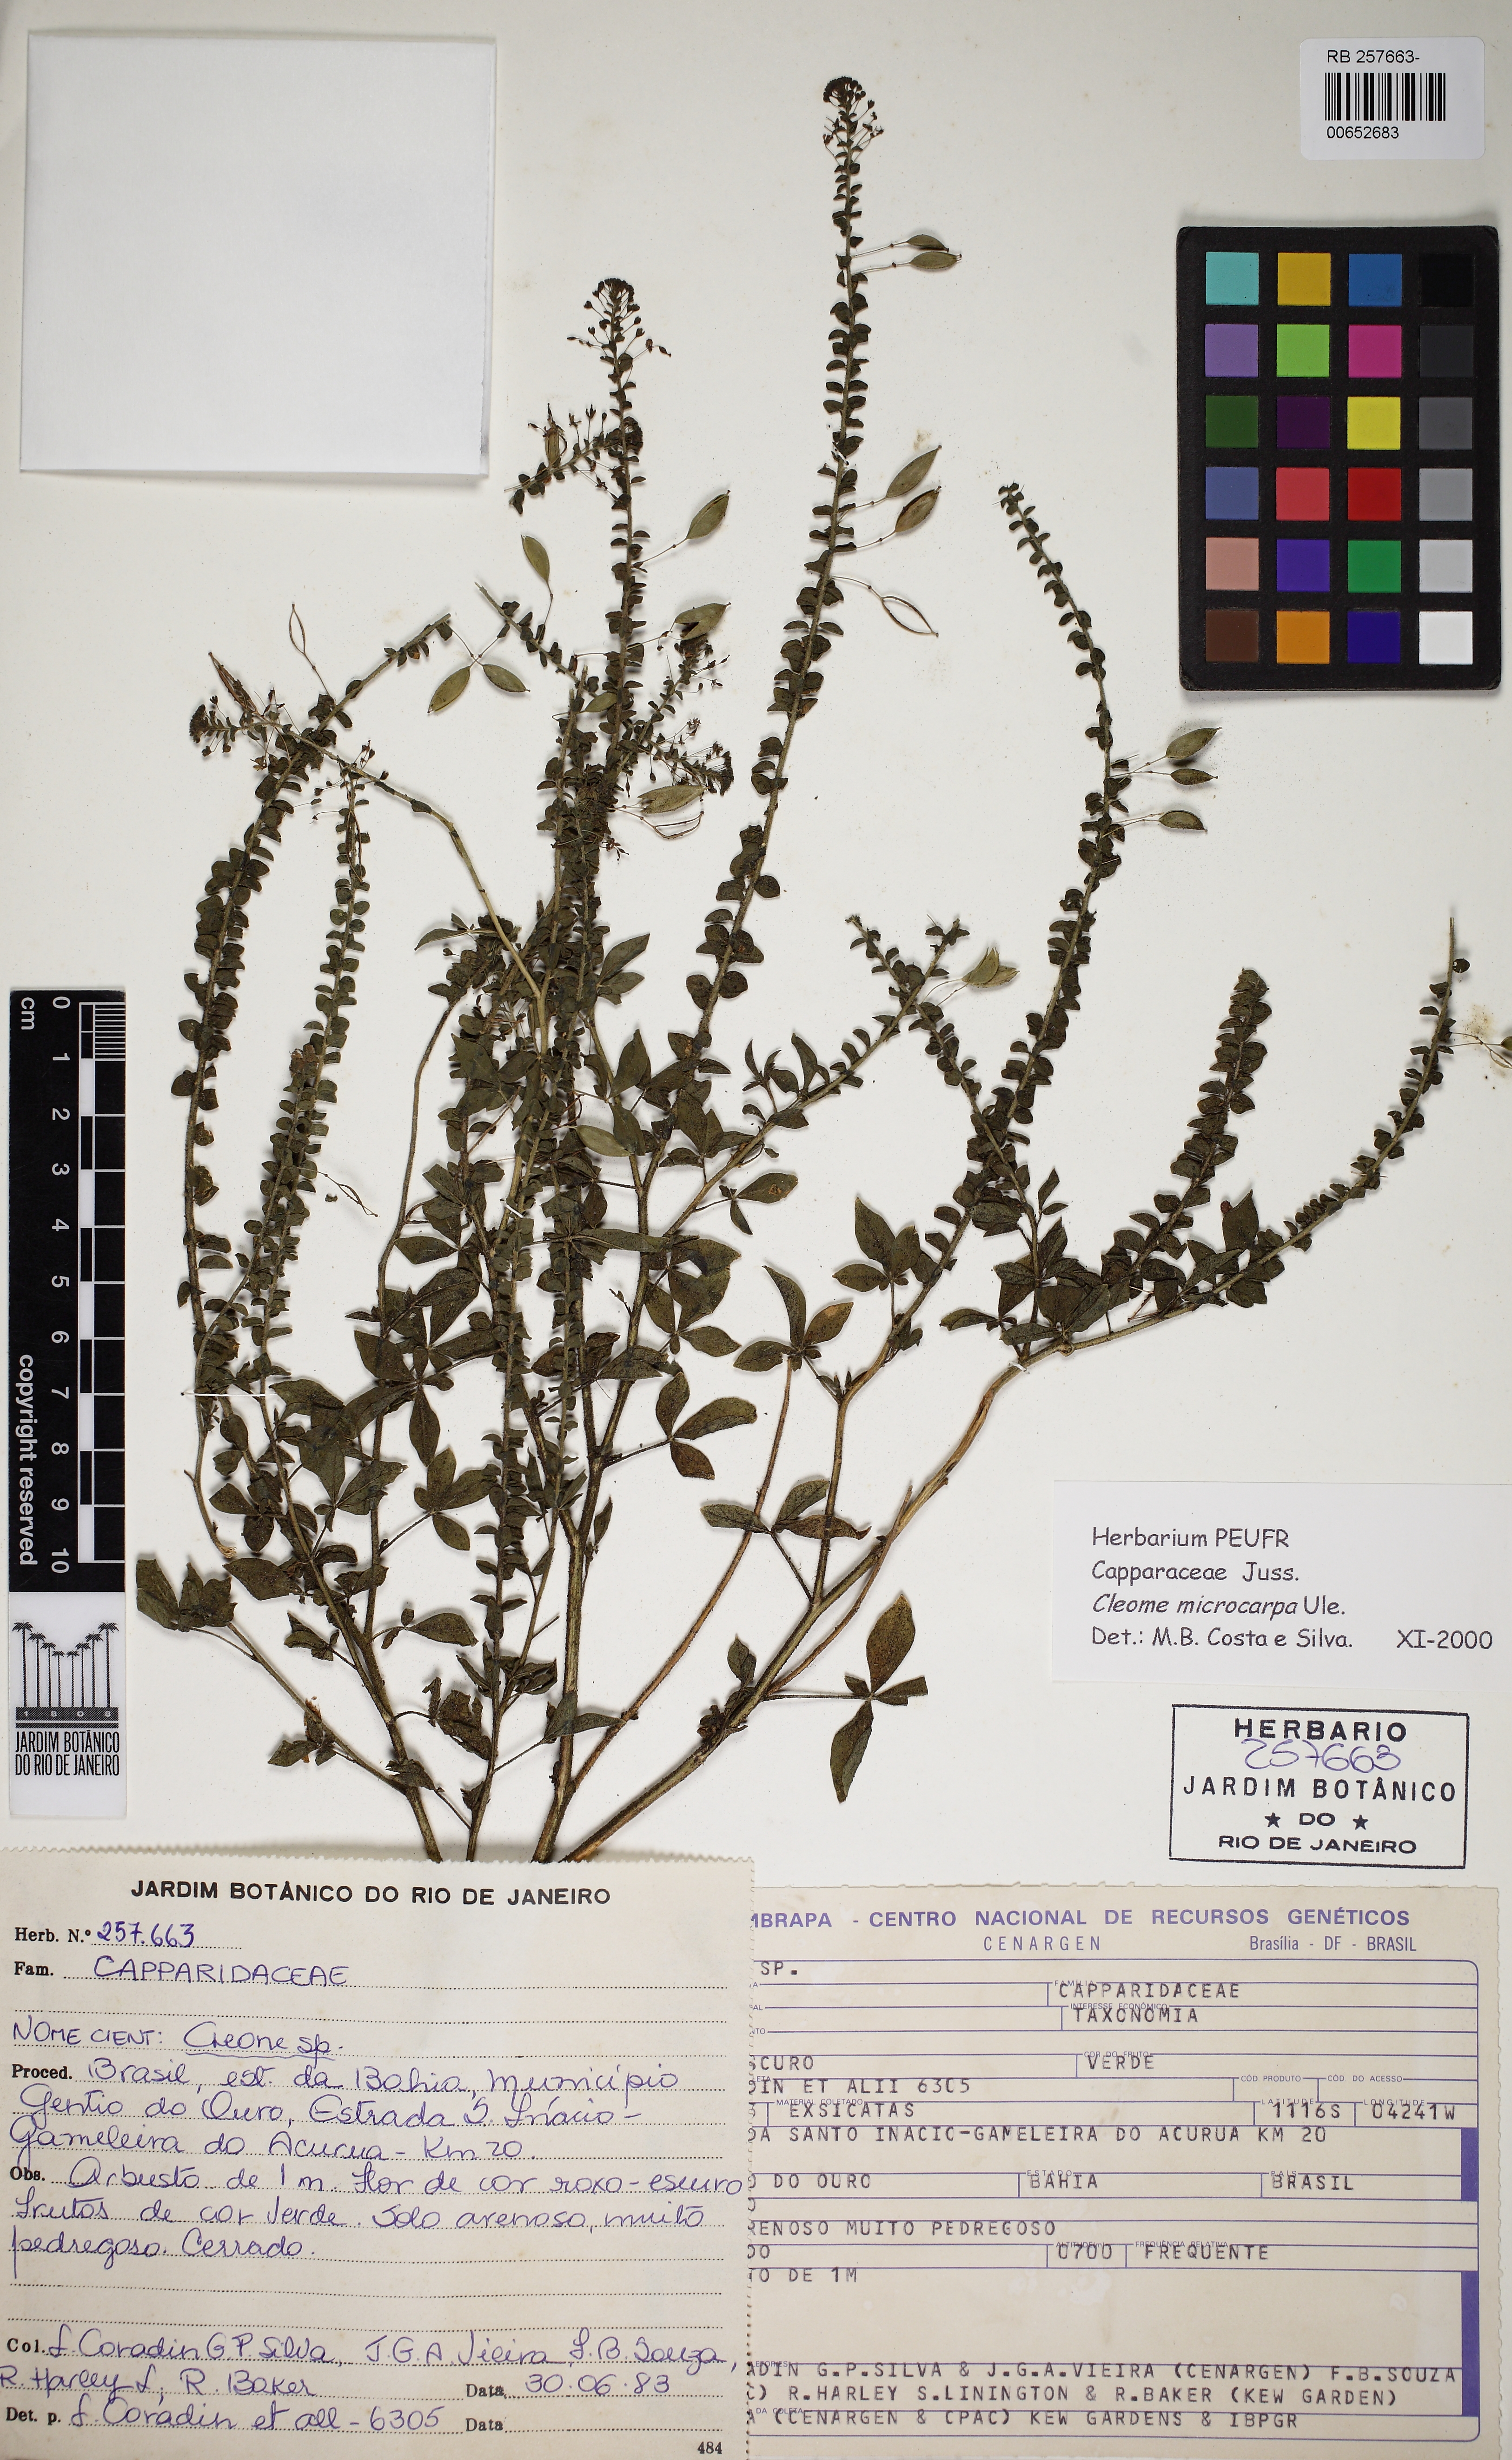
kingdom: Plantae
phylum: Tracheophyta
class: Magnoliopsida
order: Brassicales
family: Cleomaceae
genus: Tarenaya
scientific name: Tarenaya microcarpa
